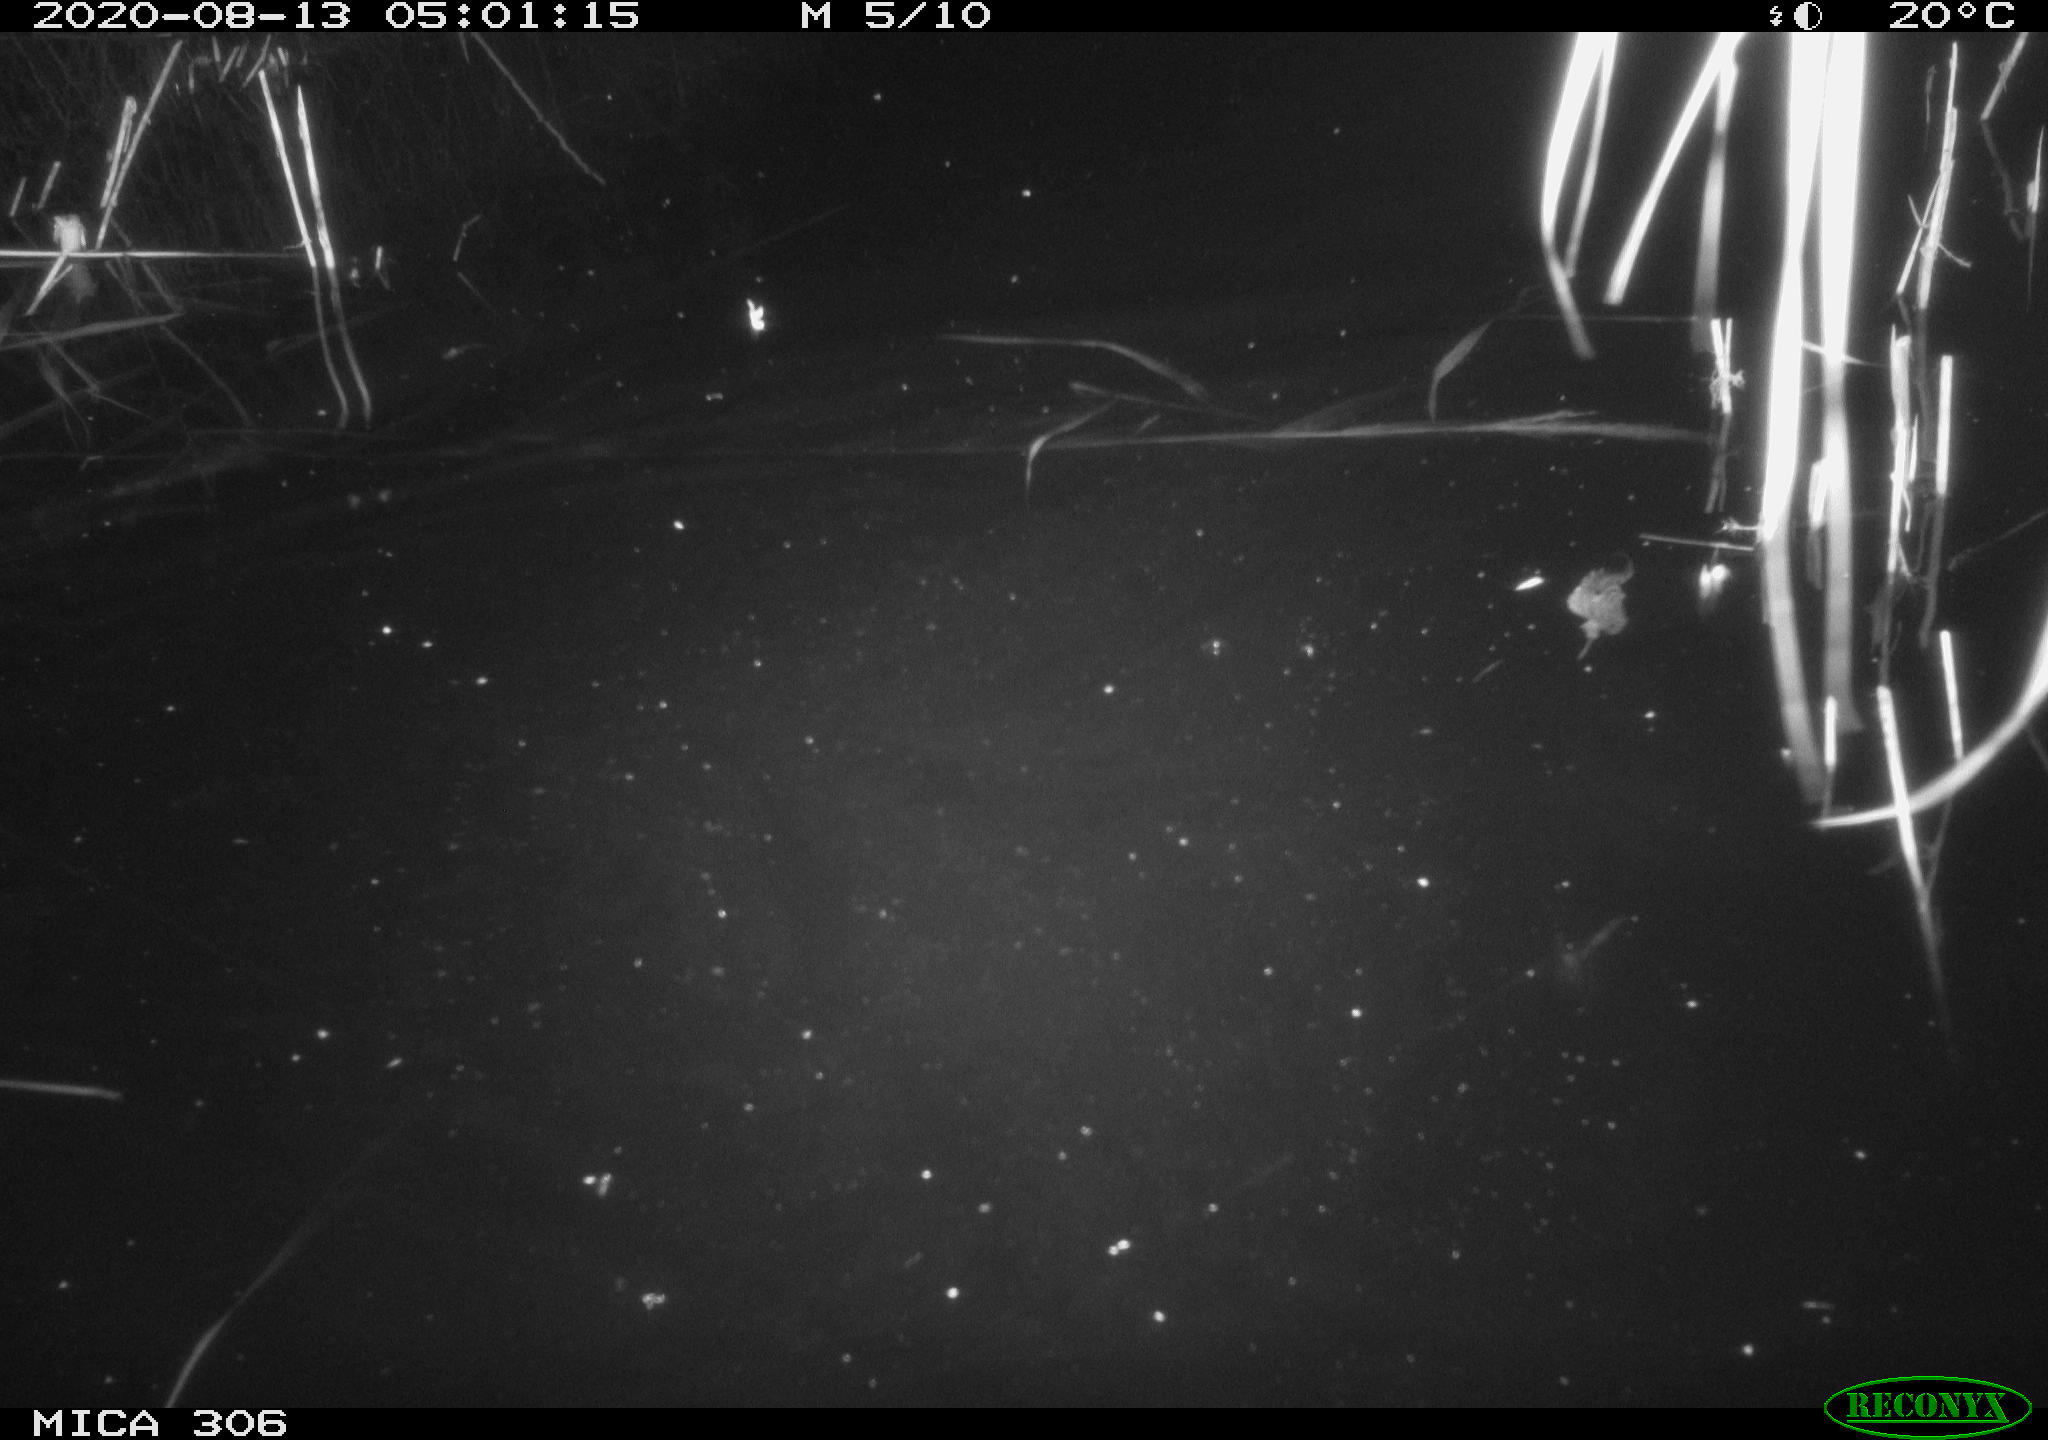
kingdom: Animalia
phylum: Chordata
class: Mammalia
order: Rodentia
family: Muridae
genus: Rattus
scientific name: Rattus norvegicus
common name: Brown rat
